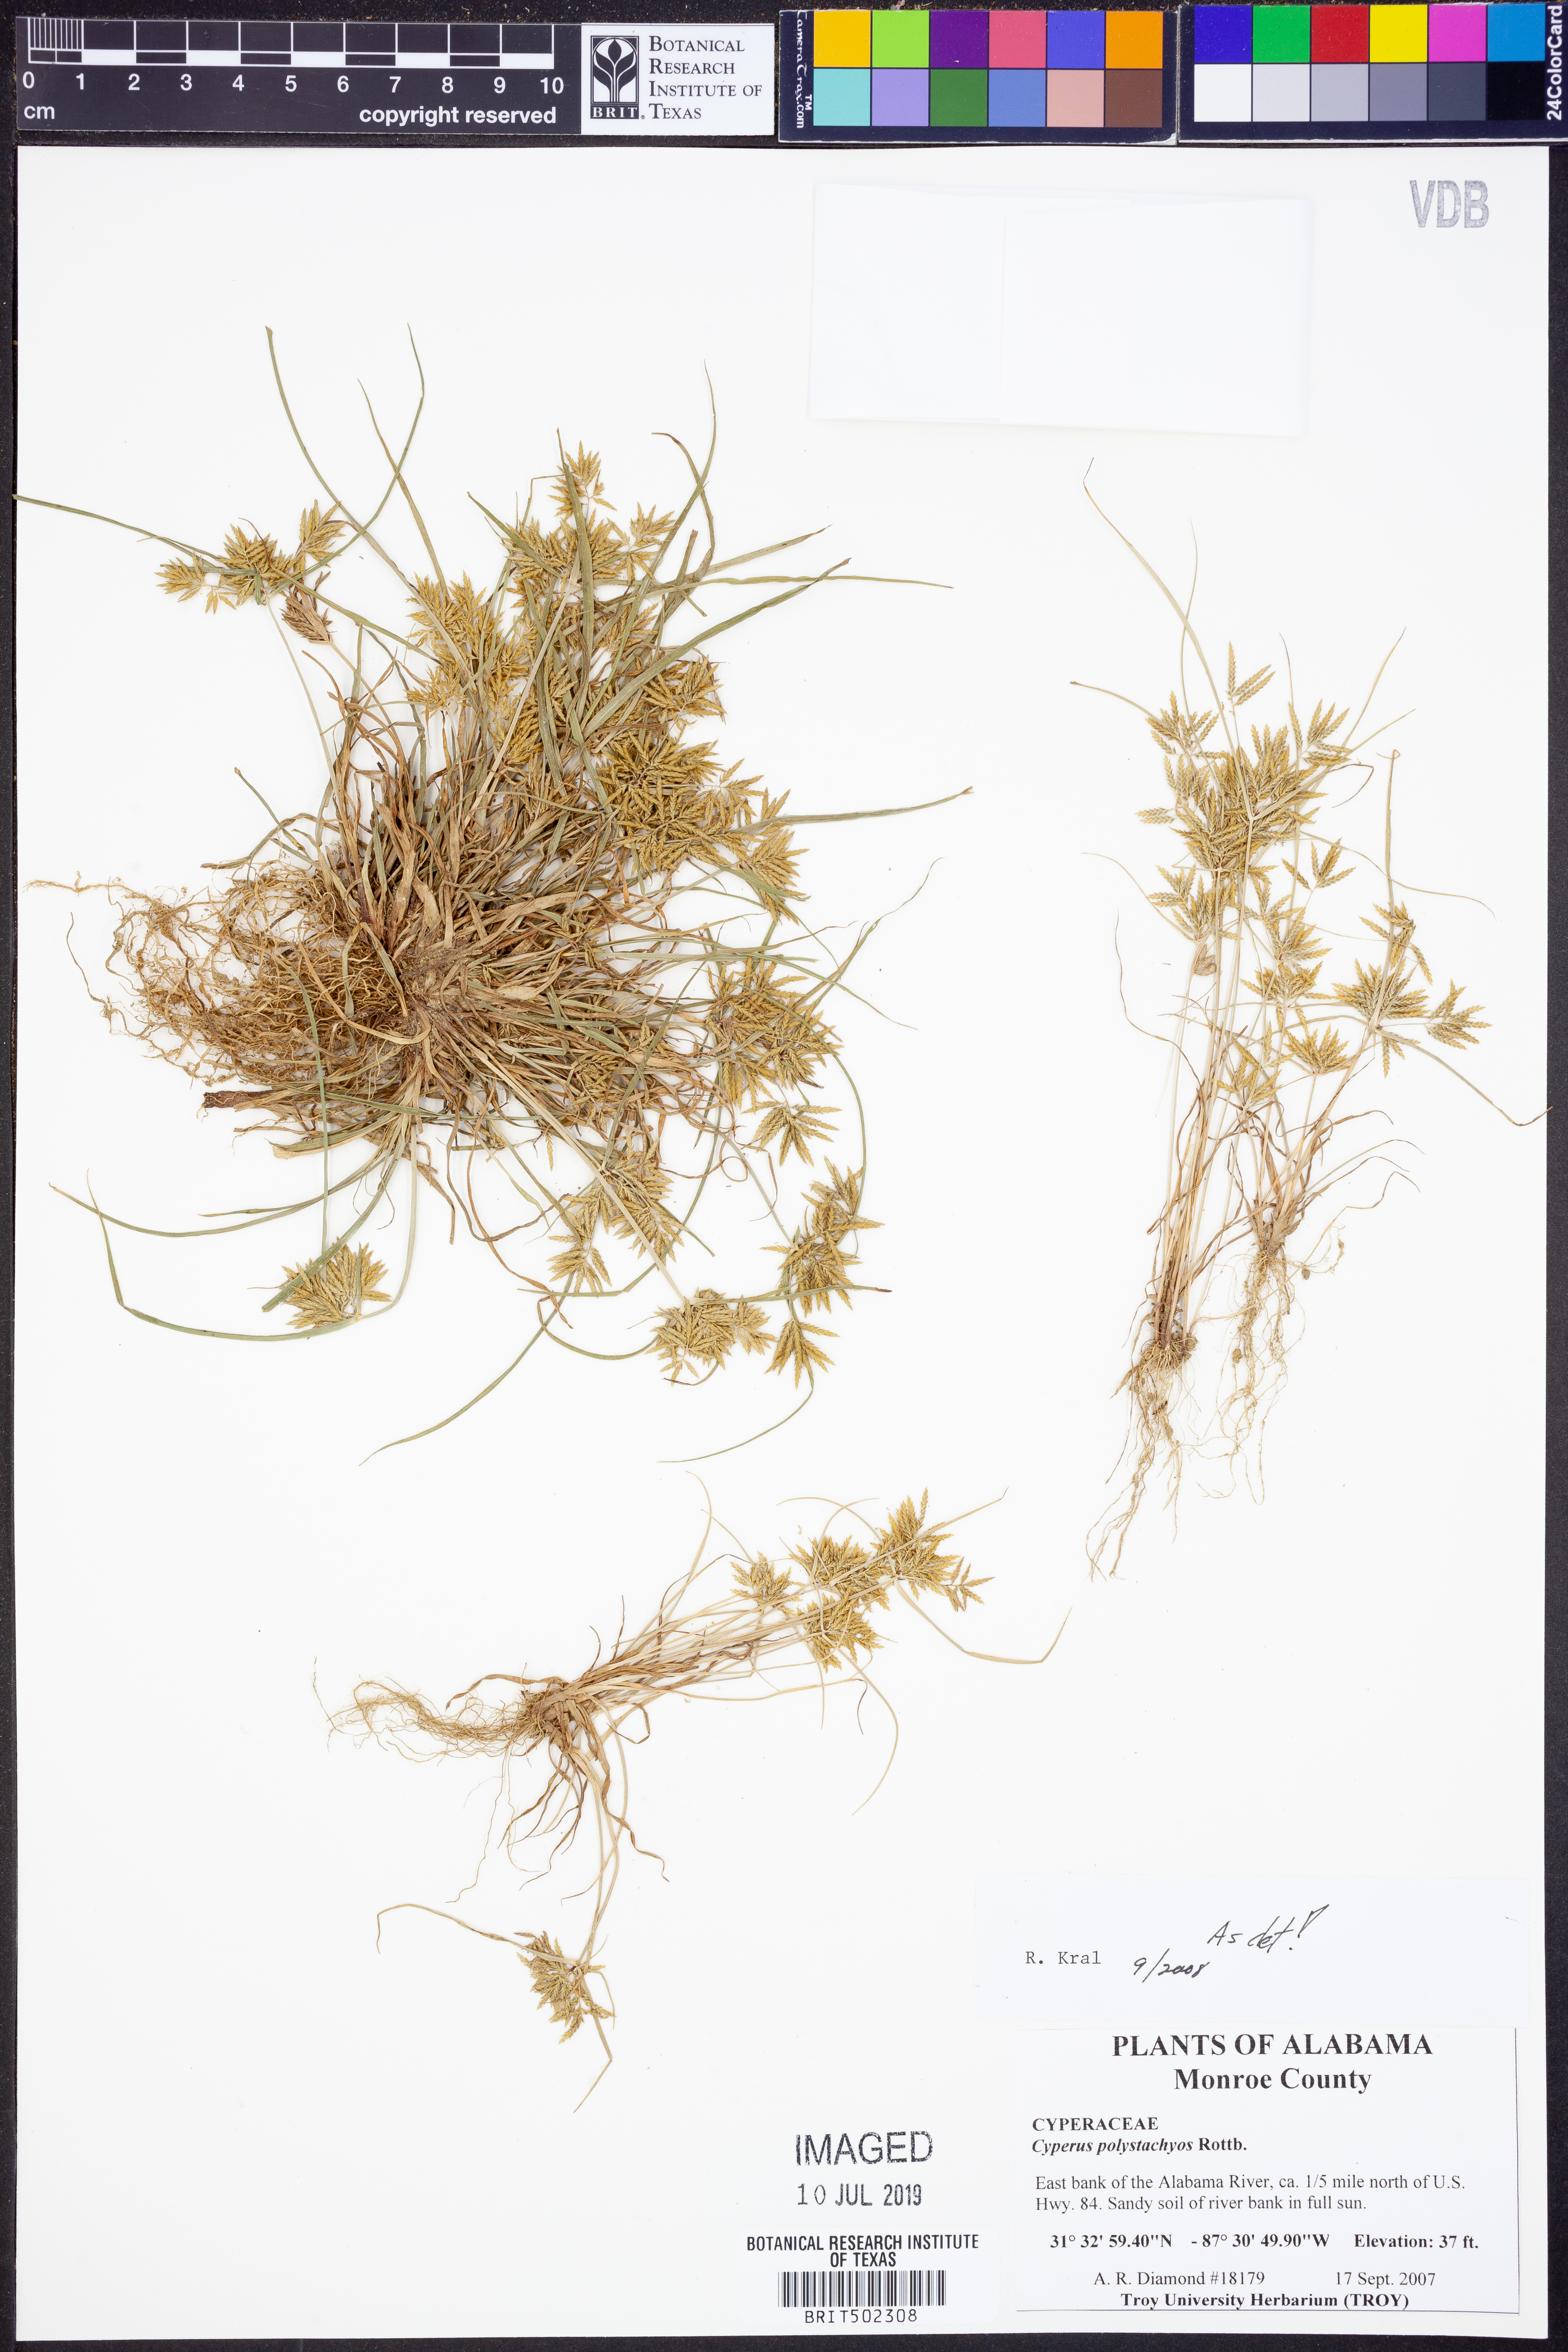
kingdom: Plantae
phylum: Tracheophyta
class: Liliopsida
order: Poales
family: Cyperaceae
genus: Cyperus
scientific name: Cyperus polystachyos
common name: Bunchy flat sedge
